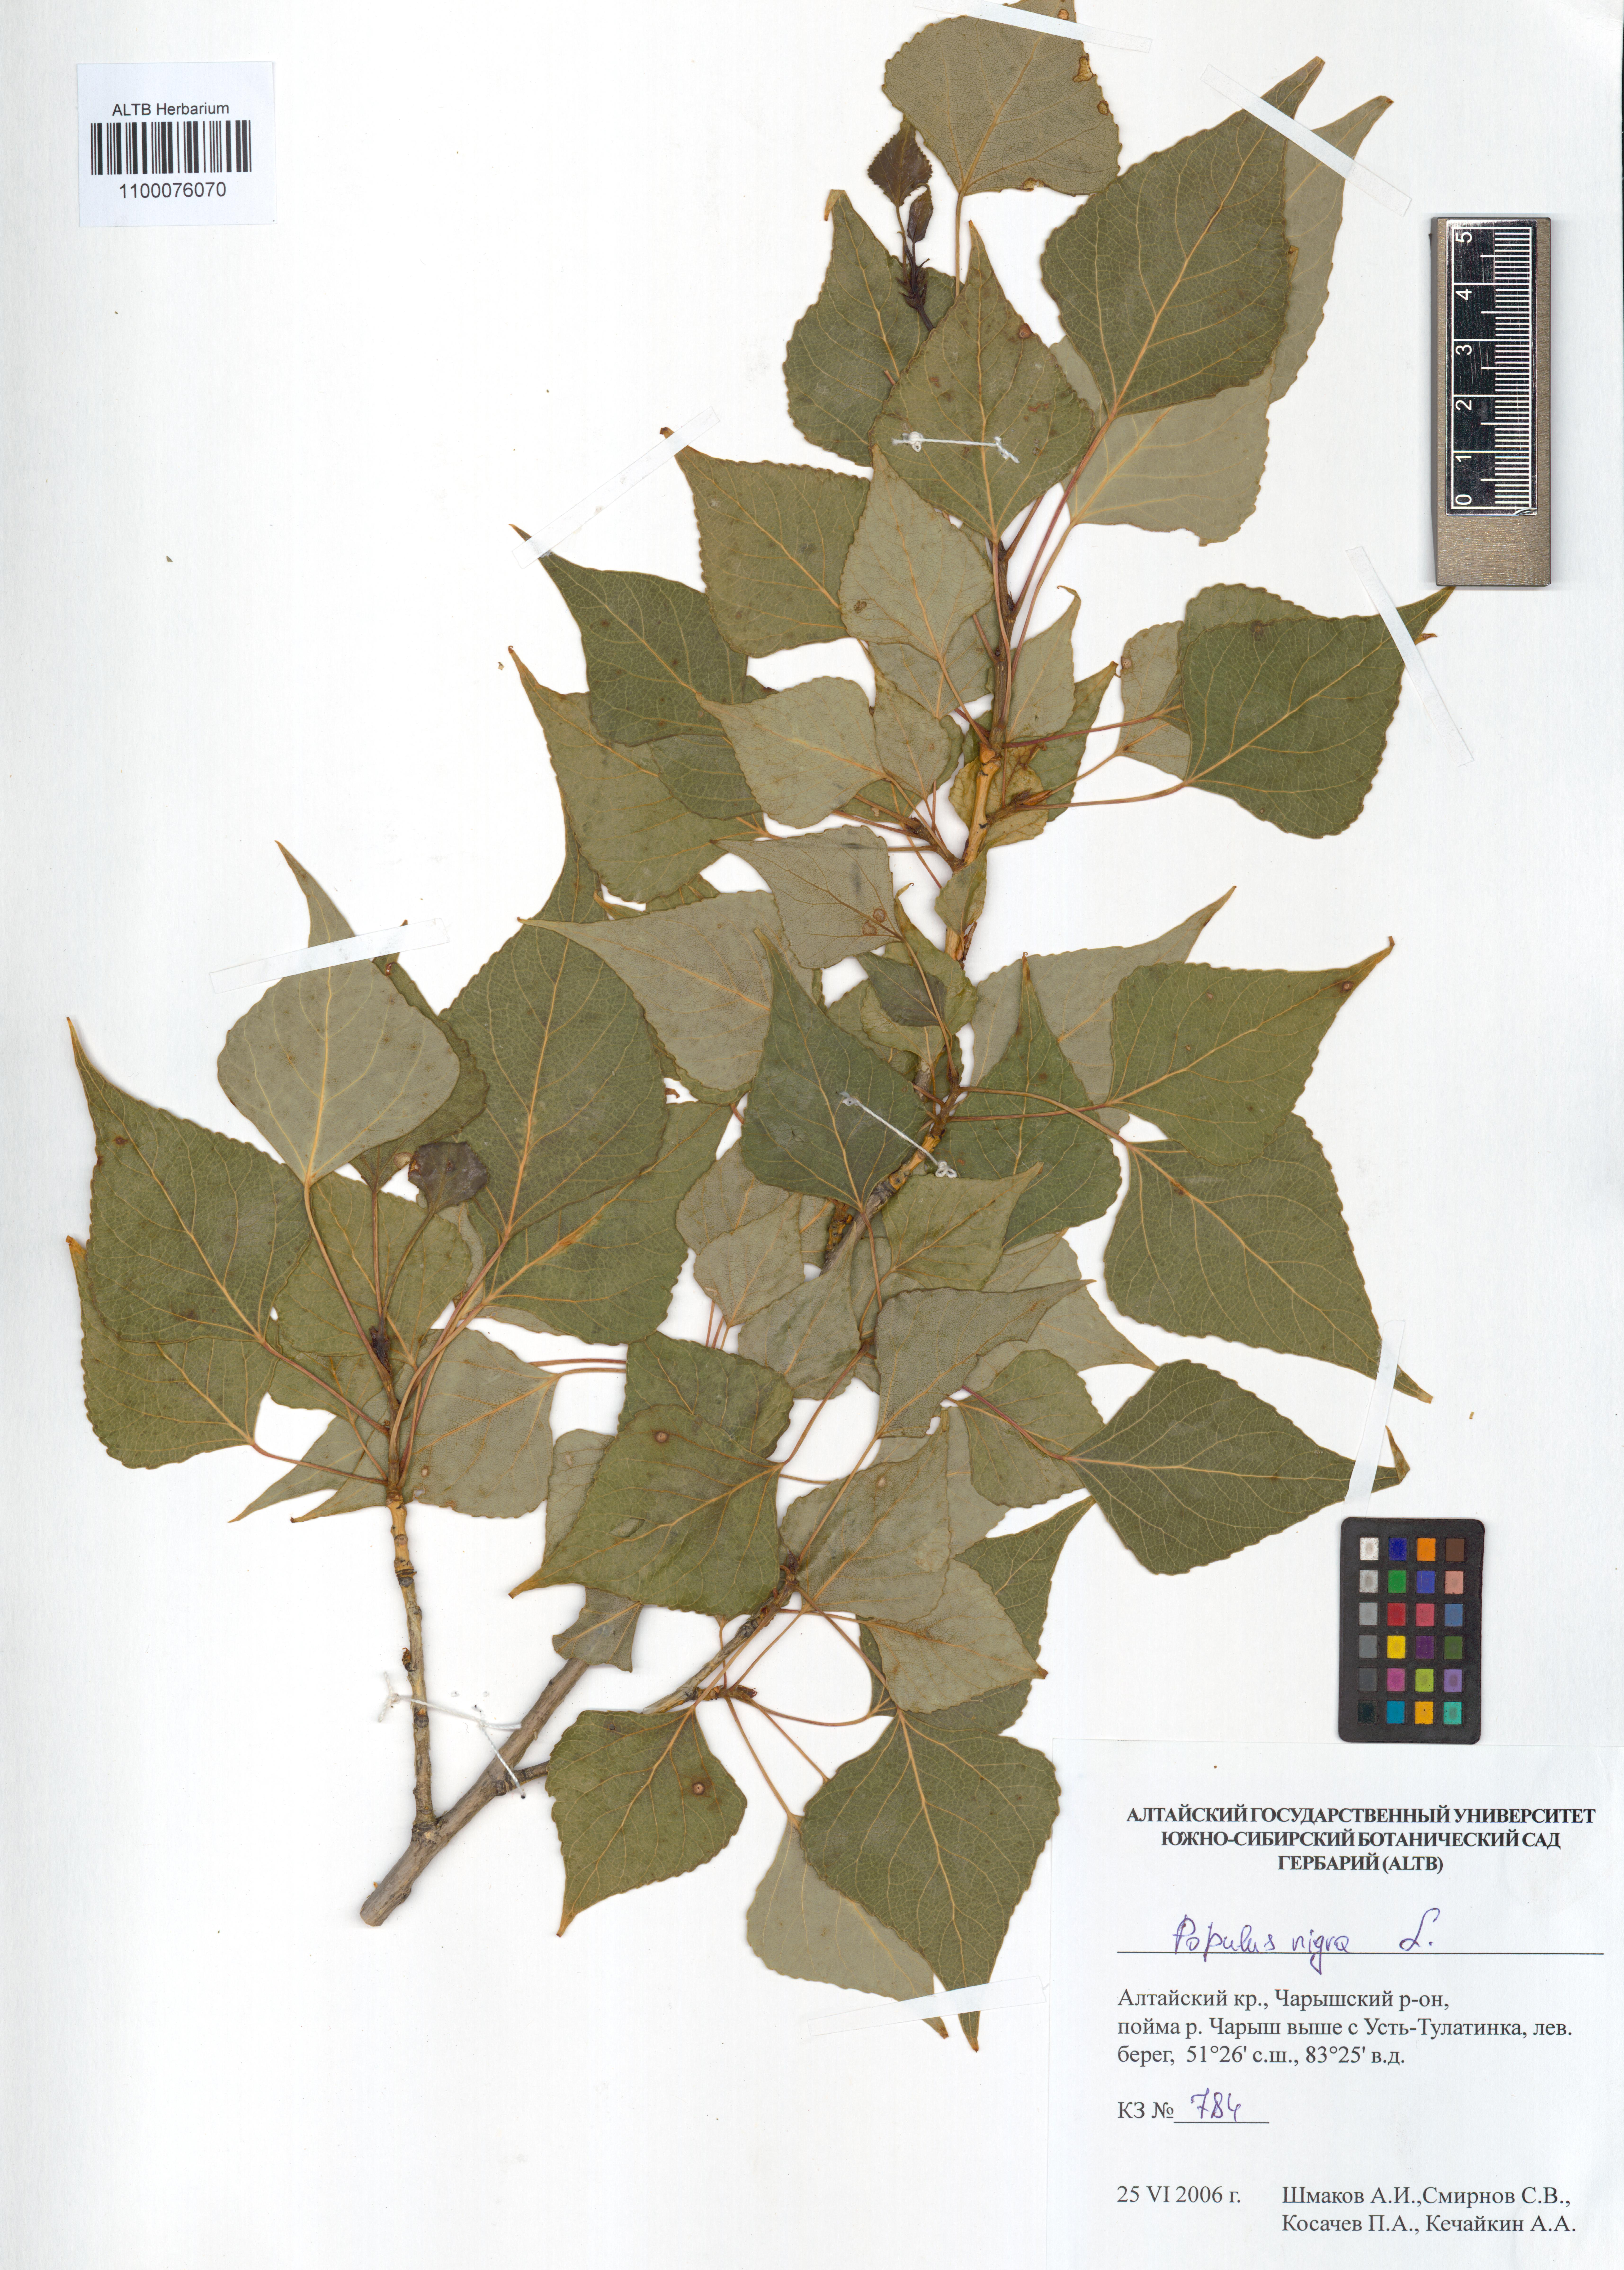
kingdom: Plantae
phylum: Tracheophyta
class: Magnoliopsida
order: Malpighiales
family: Salicaceae
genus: Populus
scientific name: Populus nigra
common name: Black poplar
